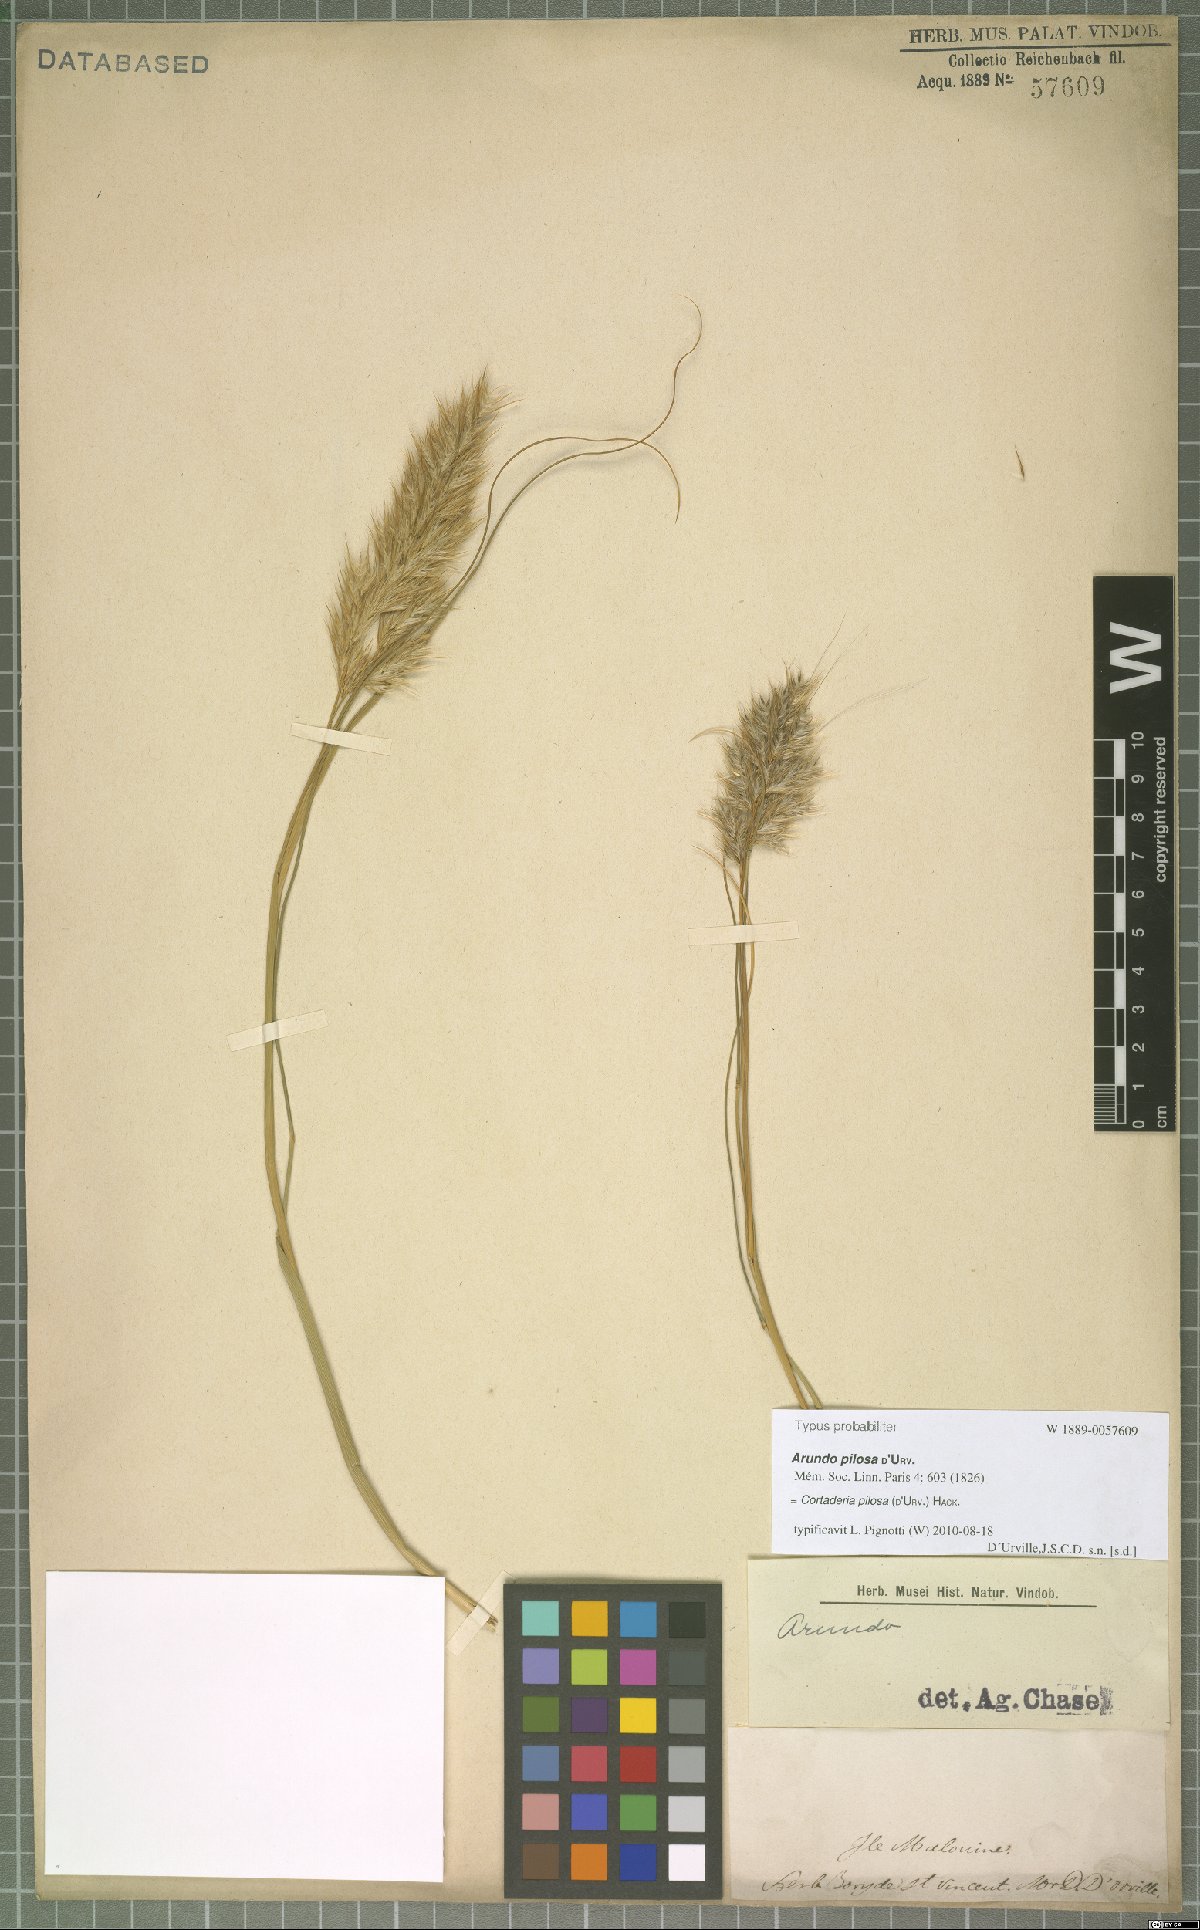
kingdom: Plantae
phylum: Tracheophyta
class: Liliopsida
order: Poales
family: Poaceae
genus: Cortaderia
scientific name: Cortaderia egmontiana
